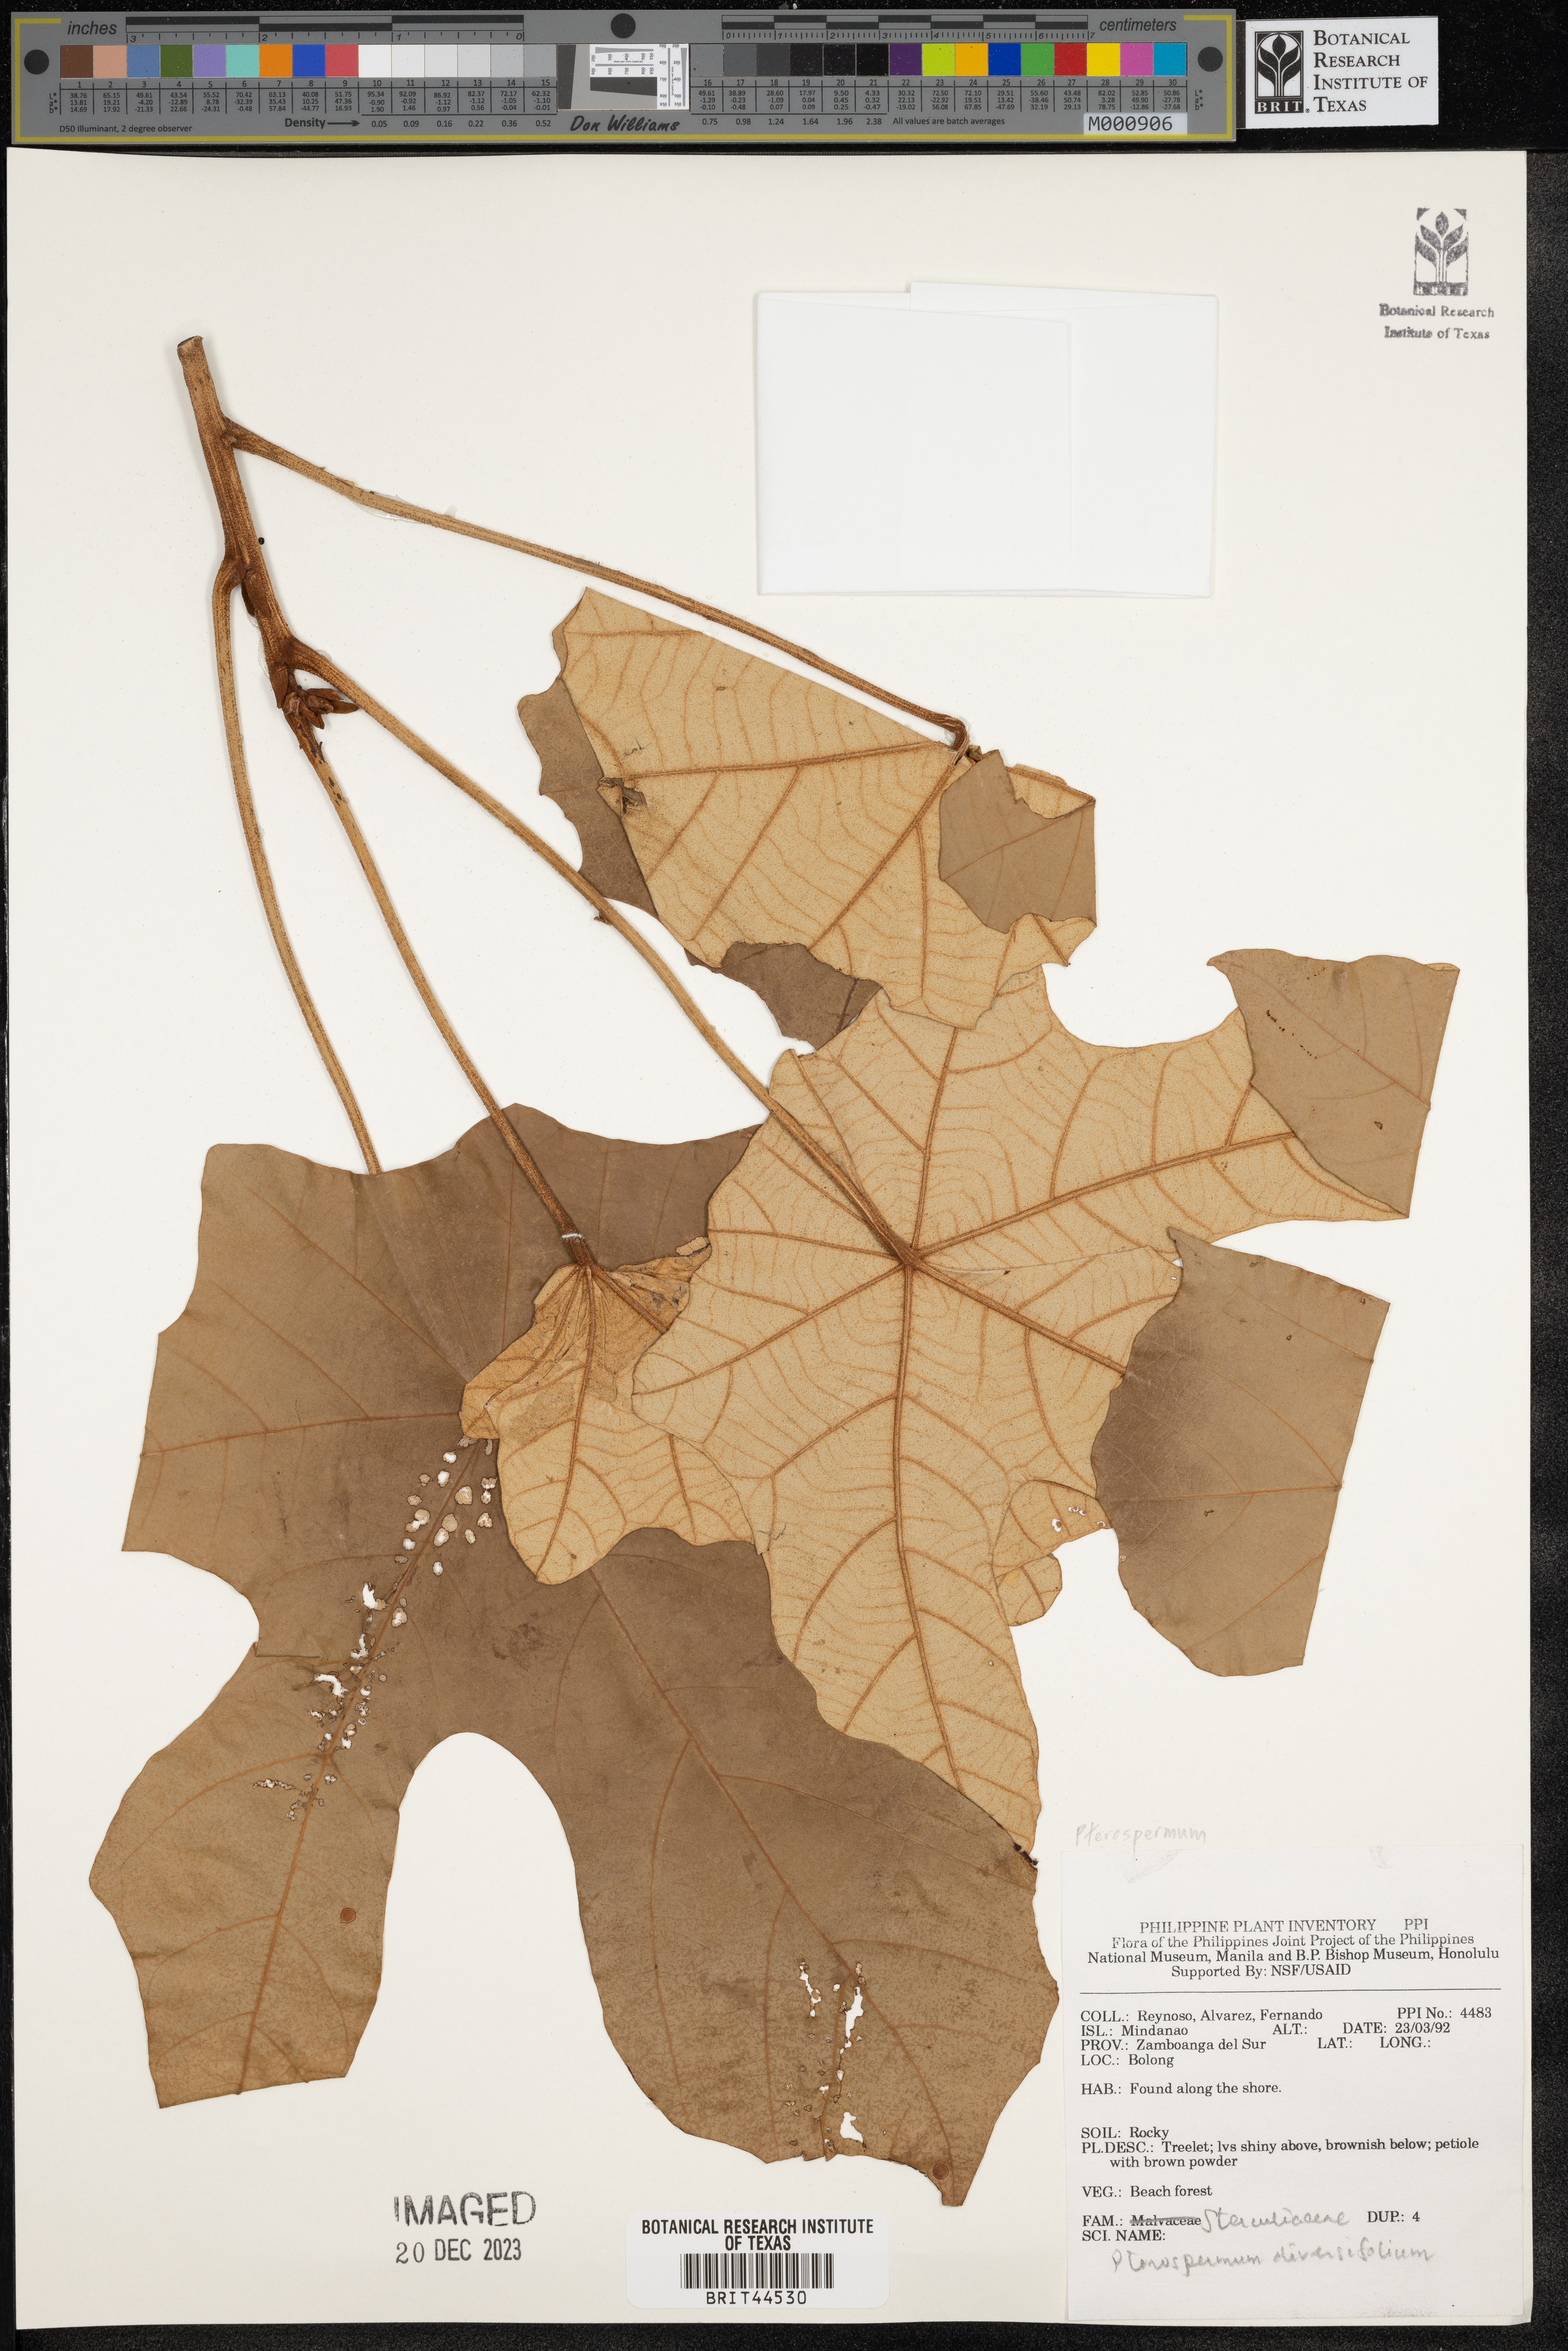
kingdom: Plantae
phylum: Tracheophyta
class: Magnoliopsida
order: Malvales
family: Malvaceae
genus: Pterospermum
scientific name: Pterospermum diversifolium
